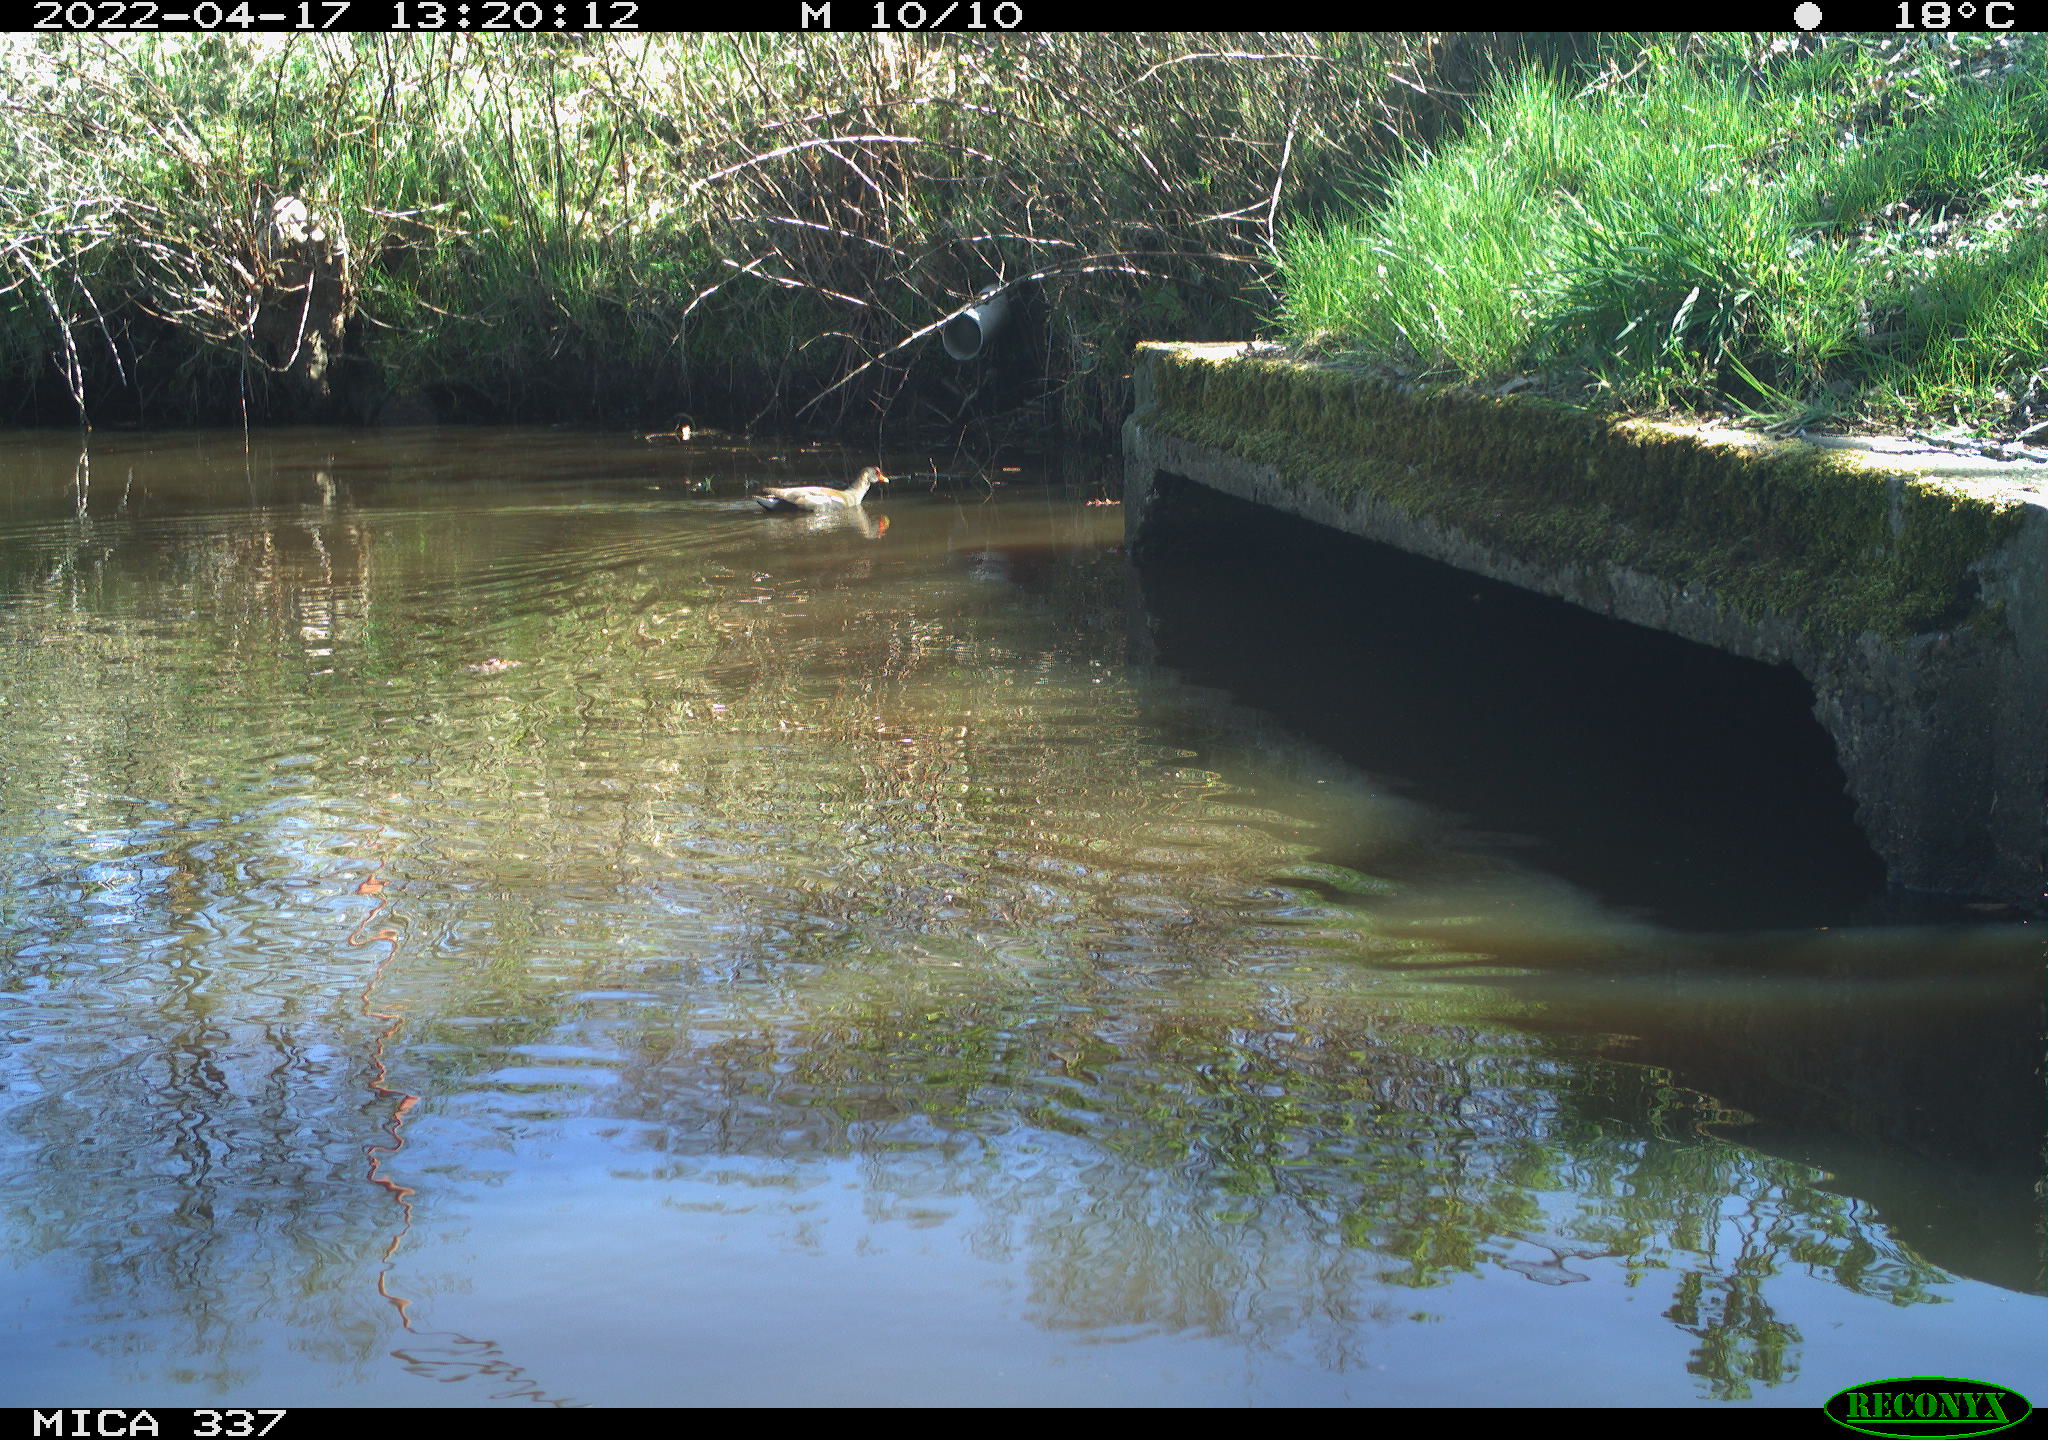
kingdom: Animalia
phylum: Chordata
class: Aves
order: Gruiformes
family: Rallidae
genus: Gallinula
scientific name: Gallinula chloropus
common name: Common moorhen
